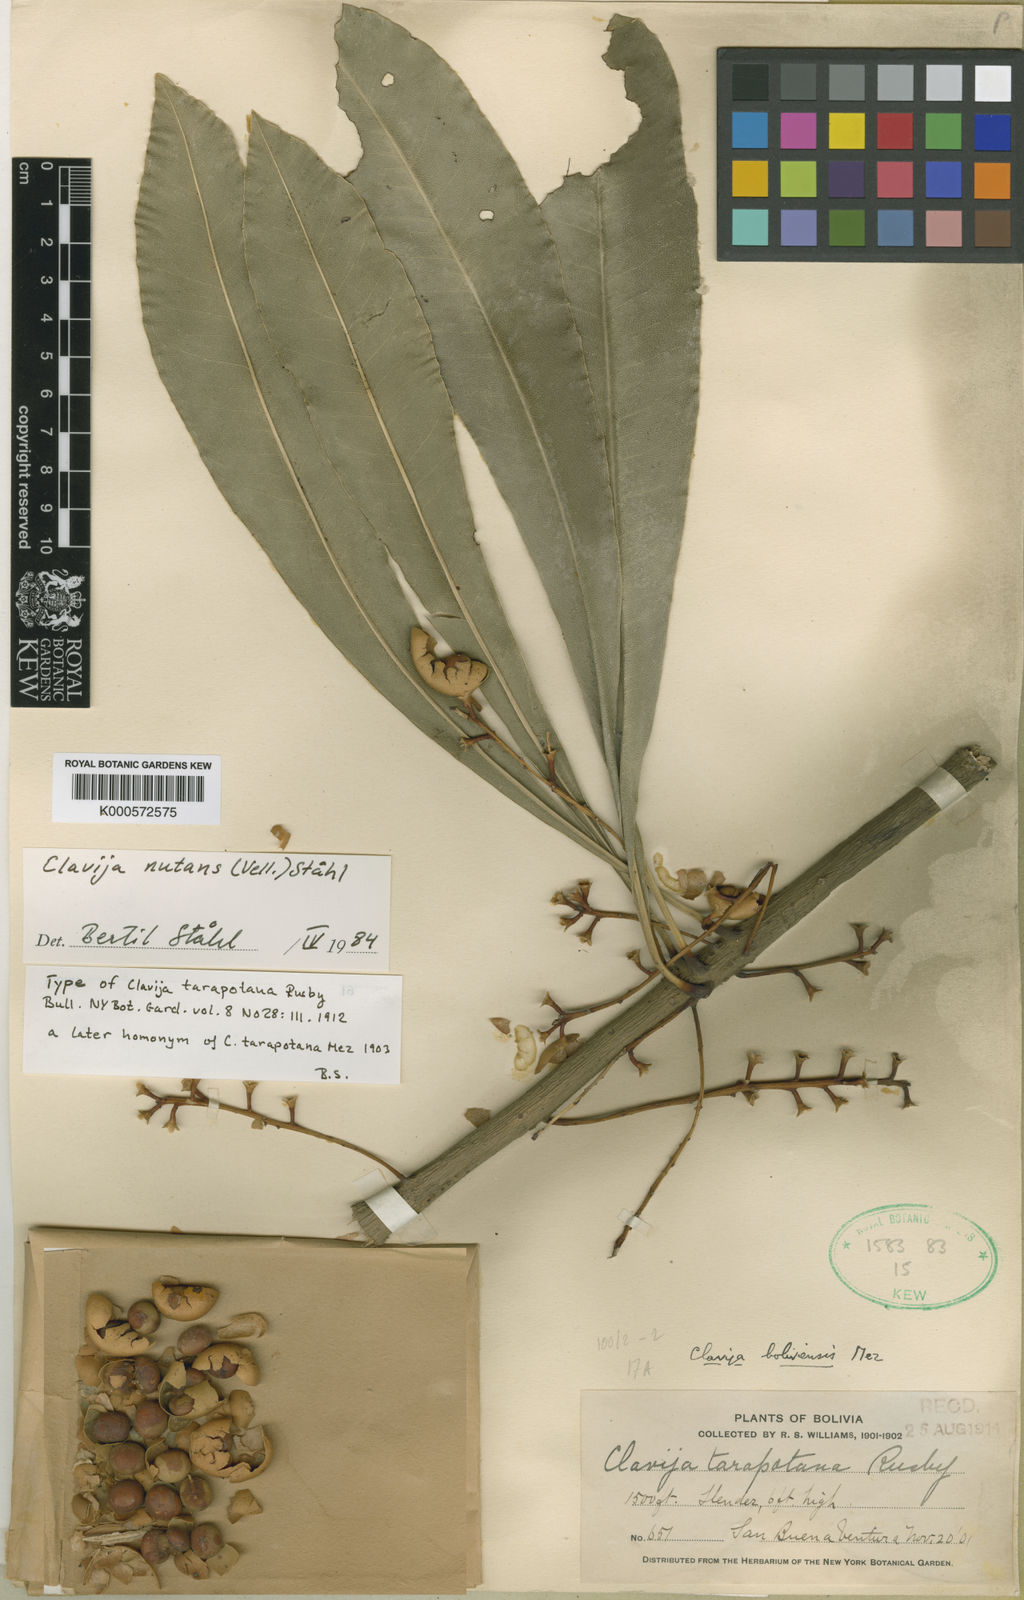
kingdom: Plantae
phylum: Tracheophyta
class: Magnoliopsida
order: Ericales
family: Primulaceae
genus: Clavija
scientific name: Clavija tarapotana
